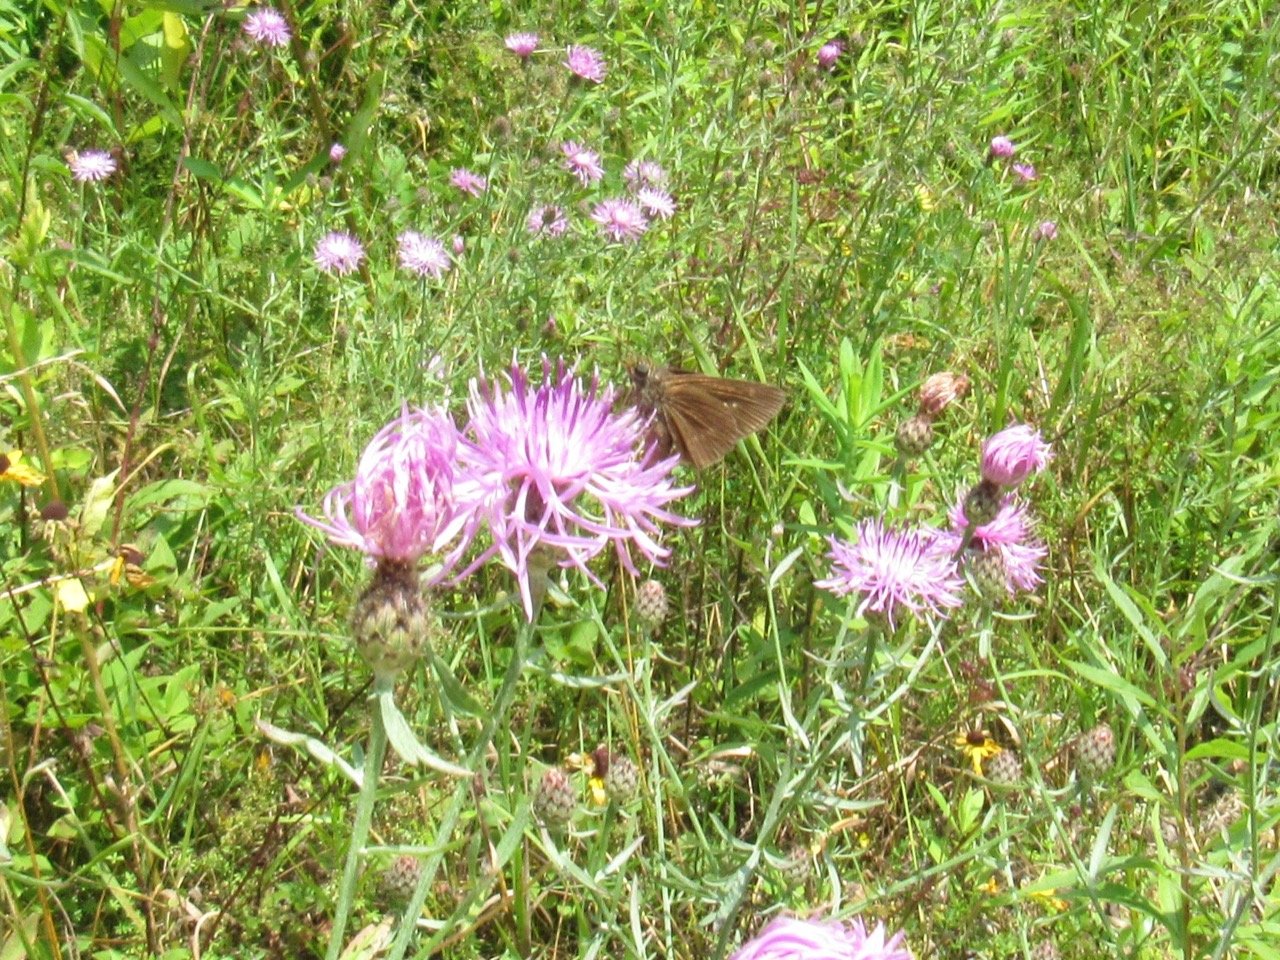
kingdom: Animalia
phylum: Arthropoda
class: Insecta
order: Lepidoptera
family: Hesperiidae
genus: Euphyes
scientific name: Euphyes vestris
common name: Dun Skipper
